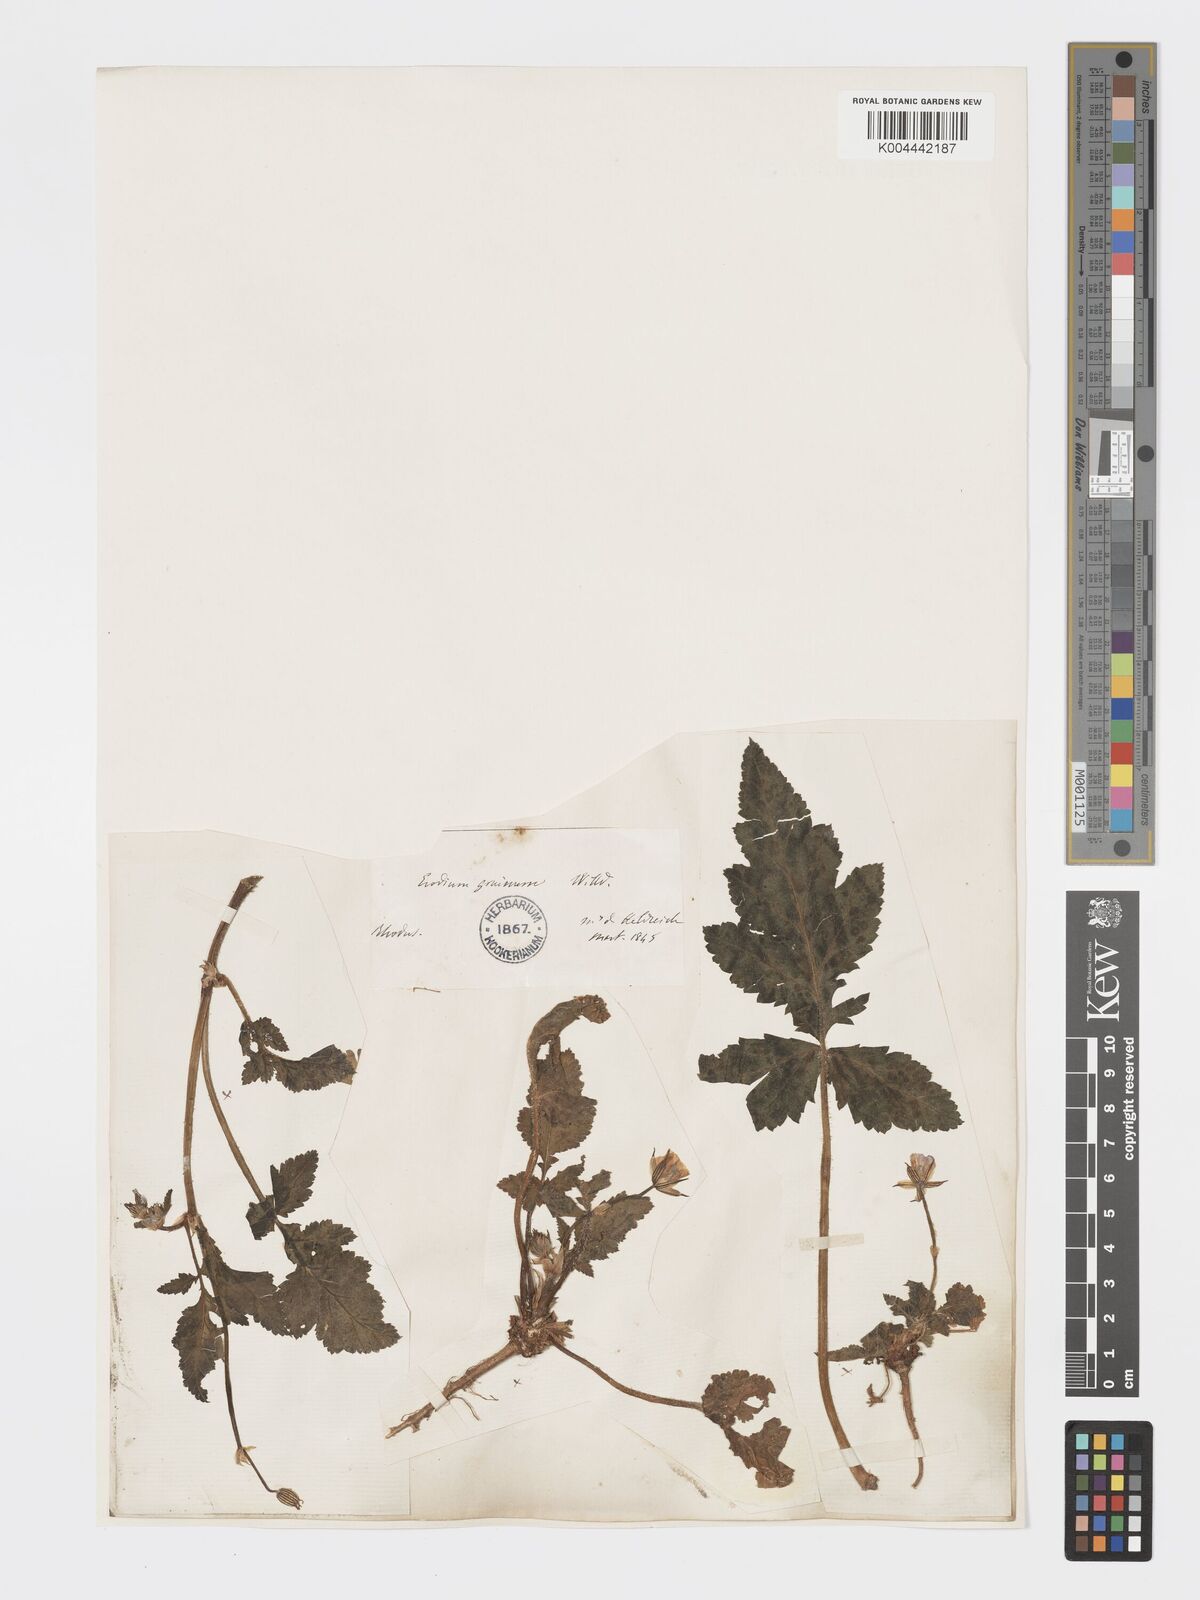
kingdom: Plantae
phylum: Tracheophyta
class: Magnoliopsida
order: Geraniales
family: Geraniaceae
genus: Erodium
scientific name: Erodium gruinum
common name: Iranian stork's bill
